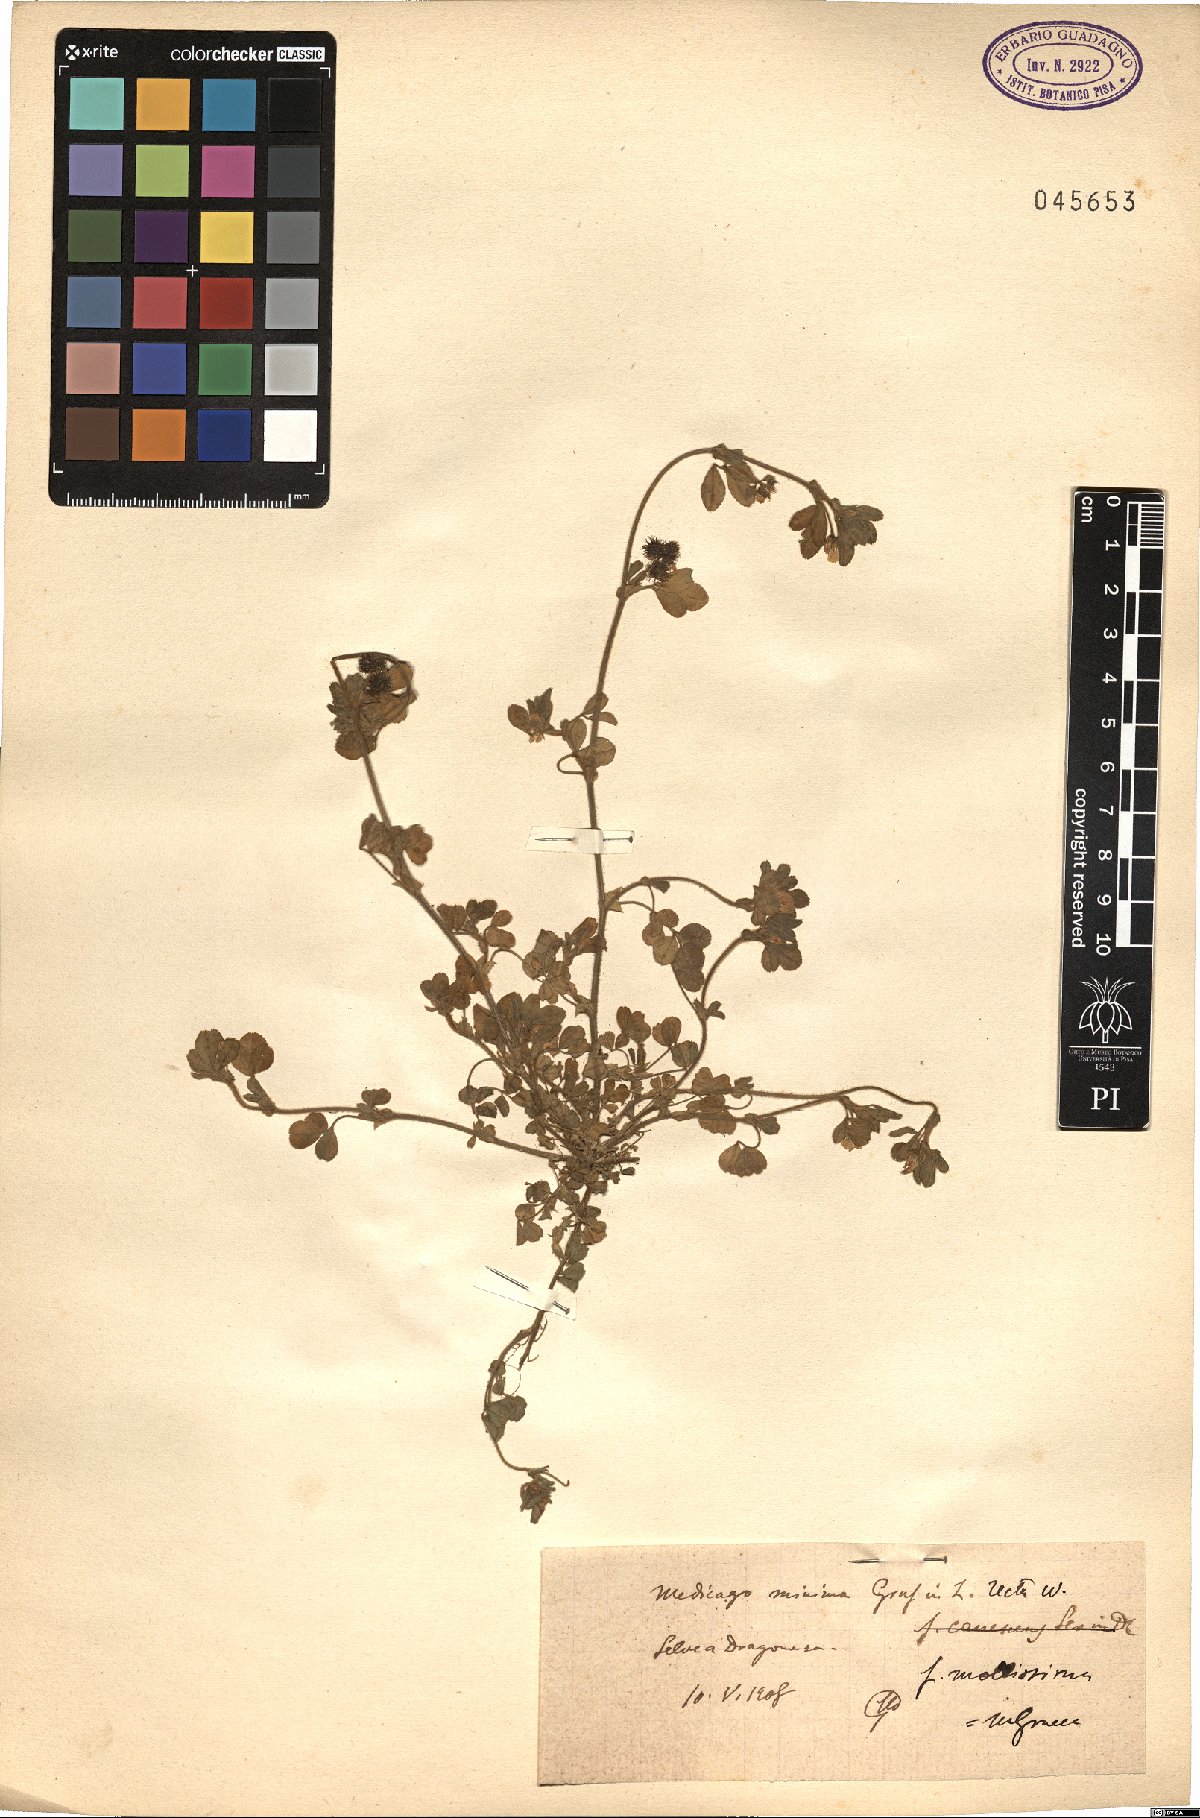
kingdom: Plantae
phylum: Tracheophyta
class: Magnoliopsida
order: Fabales
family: Fabaceae
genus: Medicago
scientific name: Medicago minima
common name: Little bur-clover
